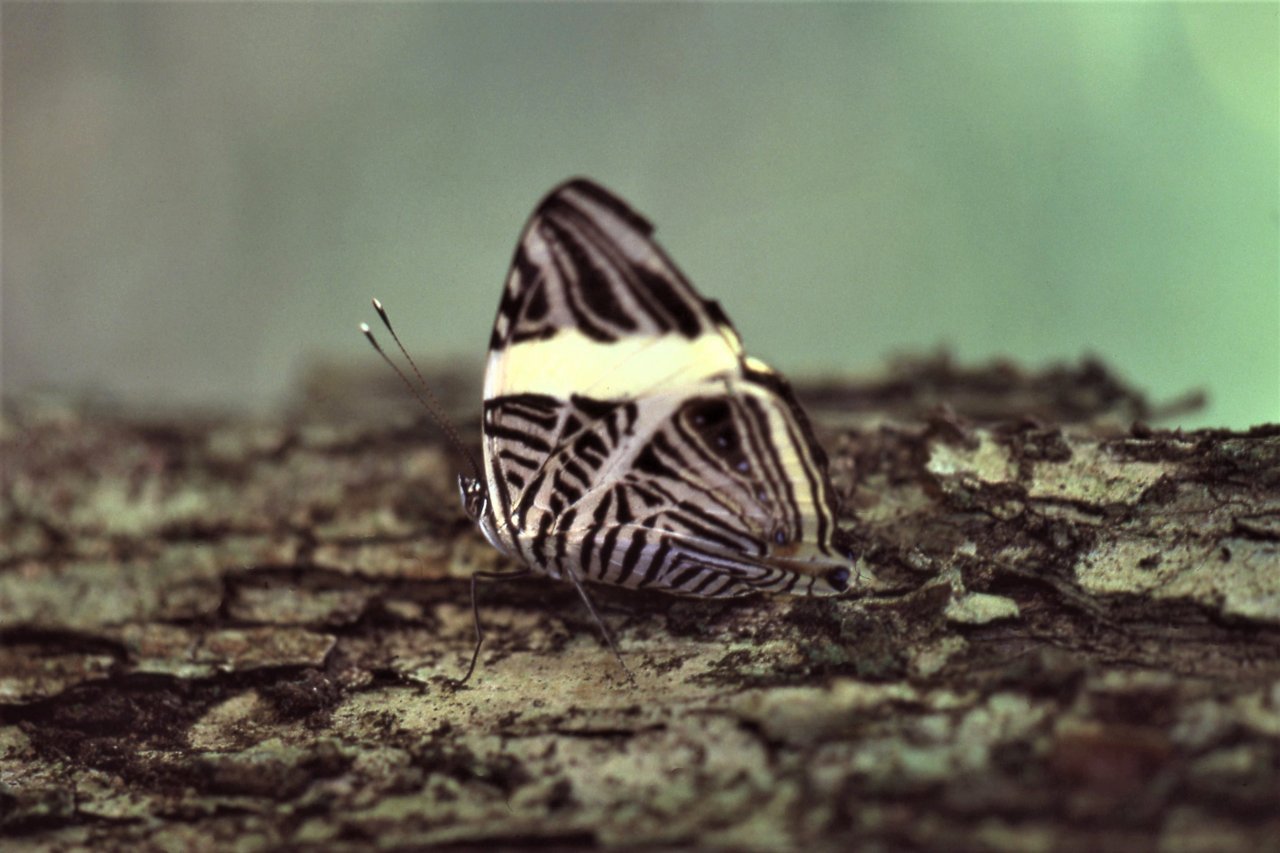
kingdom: Animalia
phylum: Arthropoda
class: Insecta
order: Lepidoptera
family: Nymphalidae
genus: Colobura
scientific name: Colobura dirce
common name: Dirce Beauty
